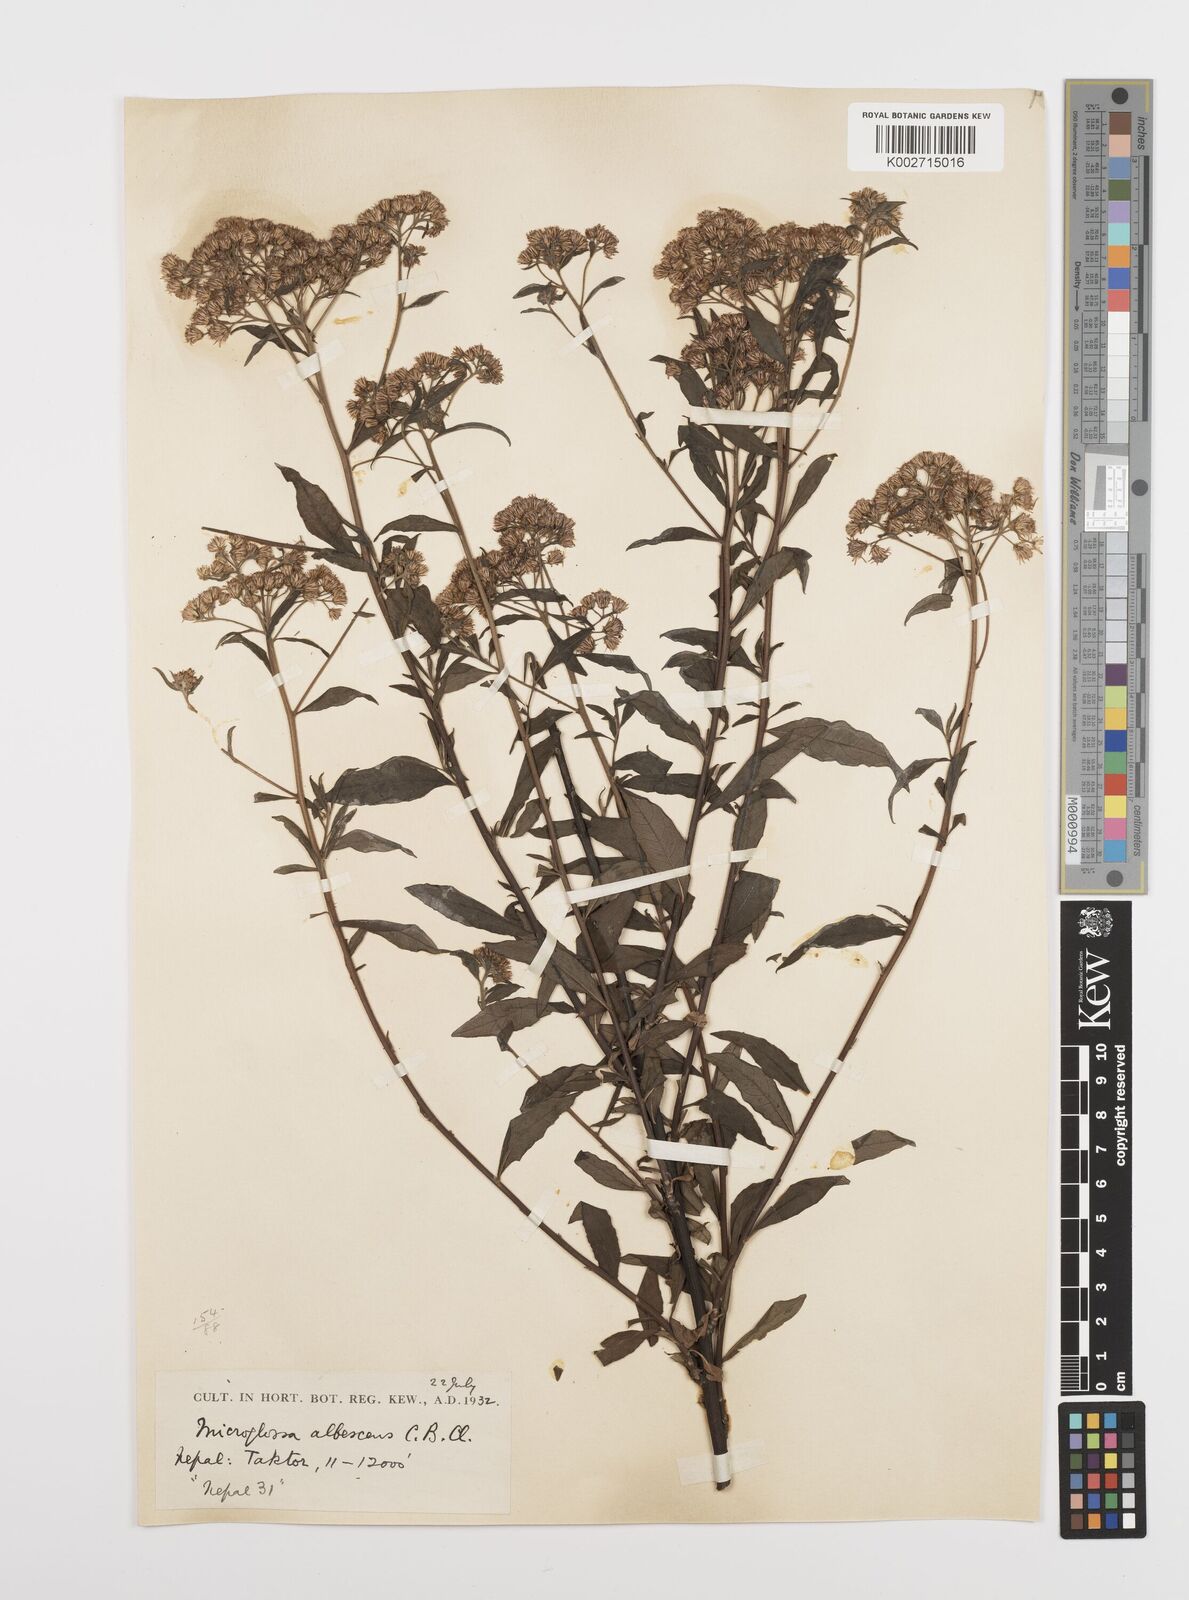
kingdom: Plantae
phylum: Tracheophyta
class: Magnoliopsida
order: Asterales
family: Asteraceae
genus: Sinosidus
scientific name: Sinosidus albescens
